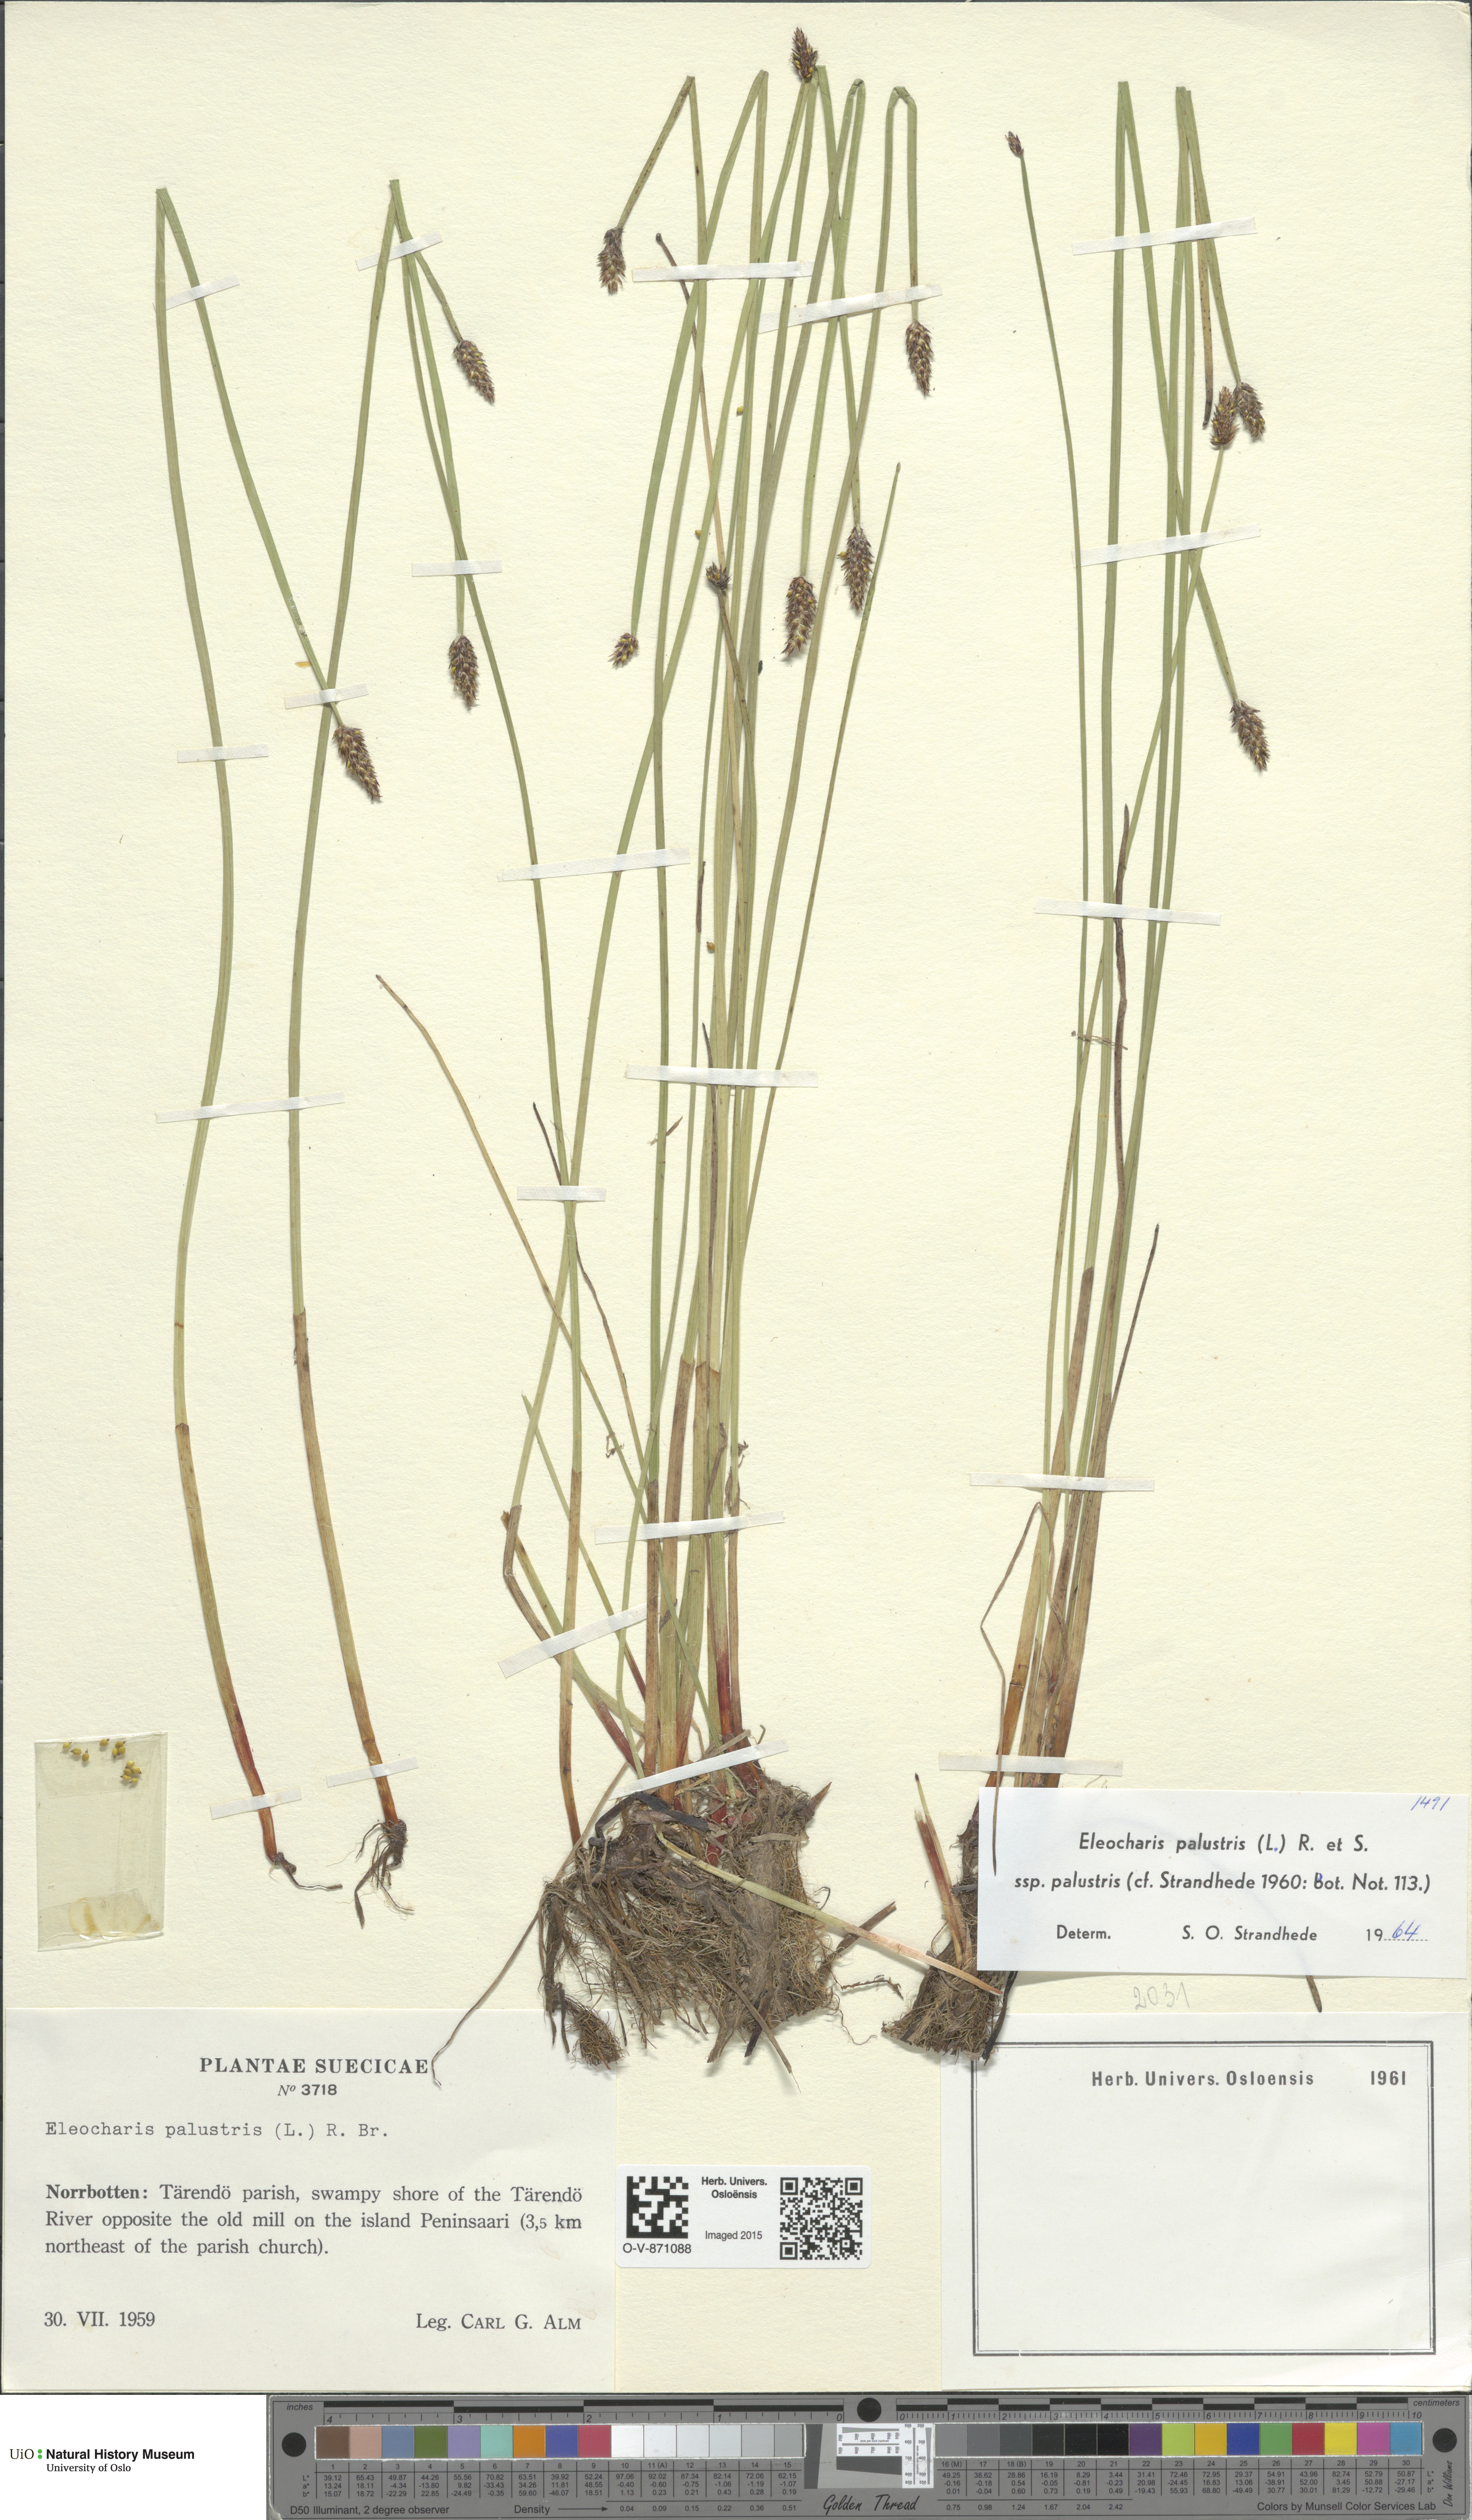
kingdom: Plantae
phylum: Tracheophyta
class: Liliopsida
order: Poales
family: Cyperaceae
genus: Eleocharis
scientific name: Eleocharis palustris
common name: Common spike-rush
